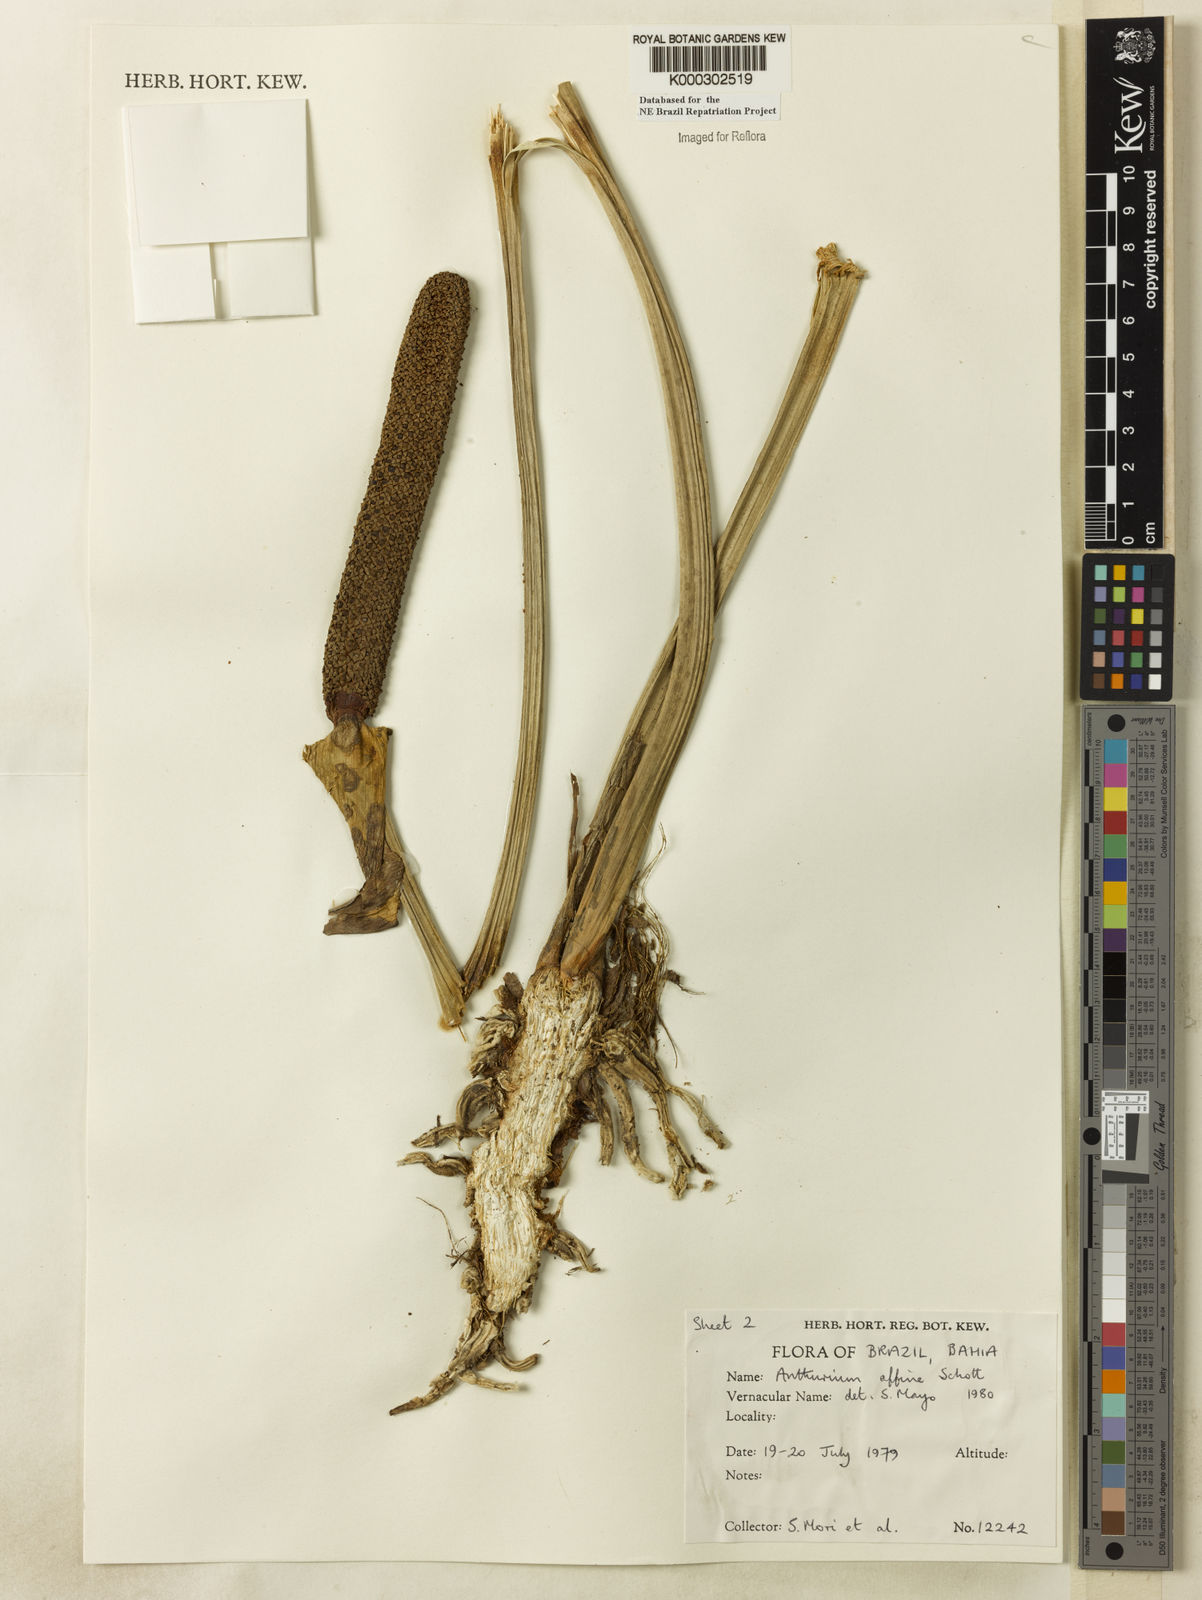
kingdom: Plantae
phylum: Tracheophyta
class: Liliopsida
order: Alismatales
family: Araceae
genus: Anthurium
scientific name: Anthurium affine
